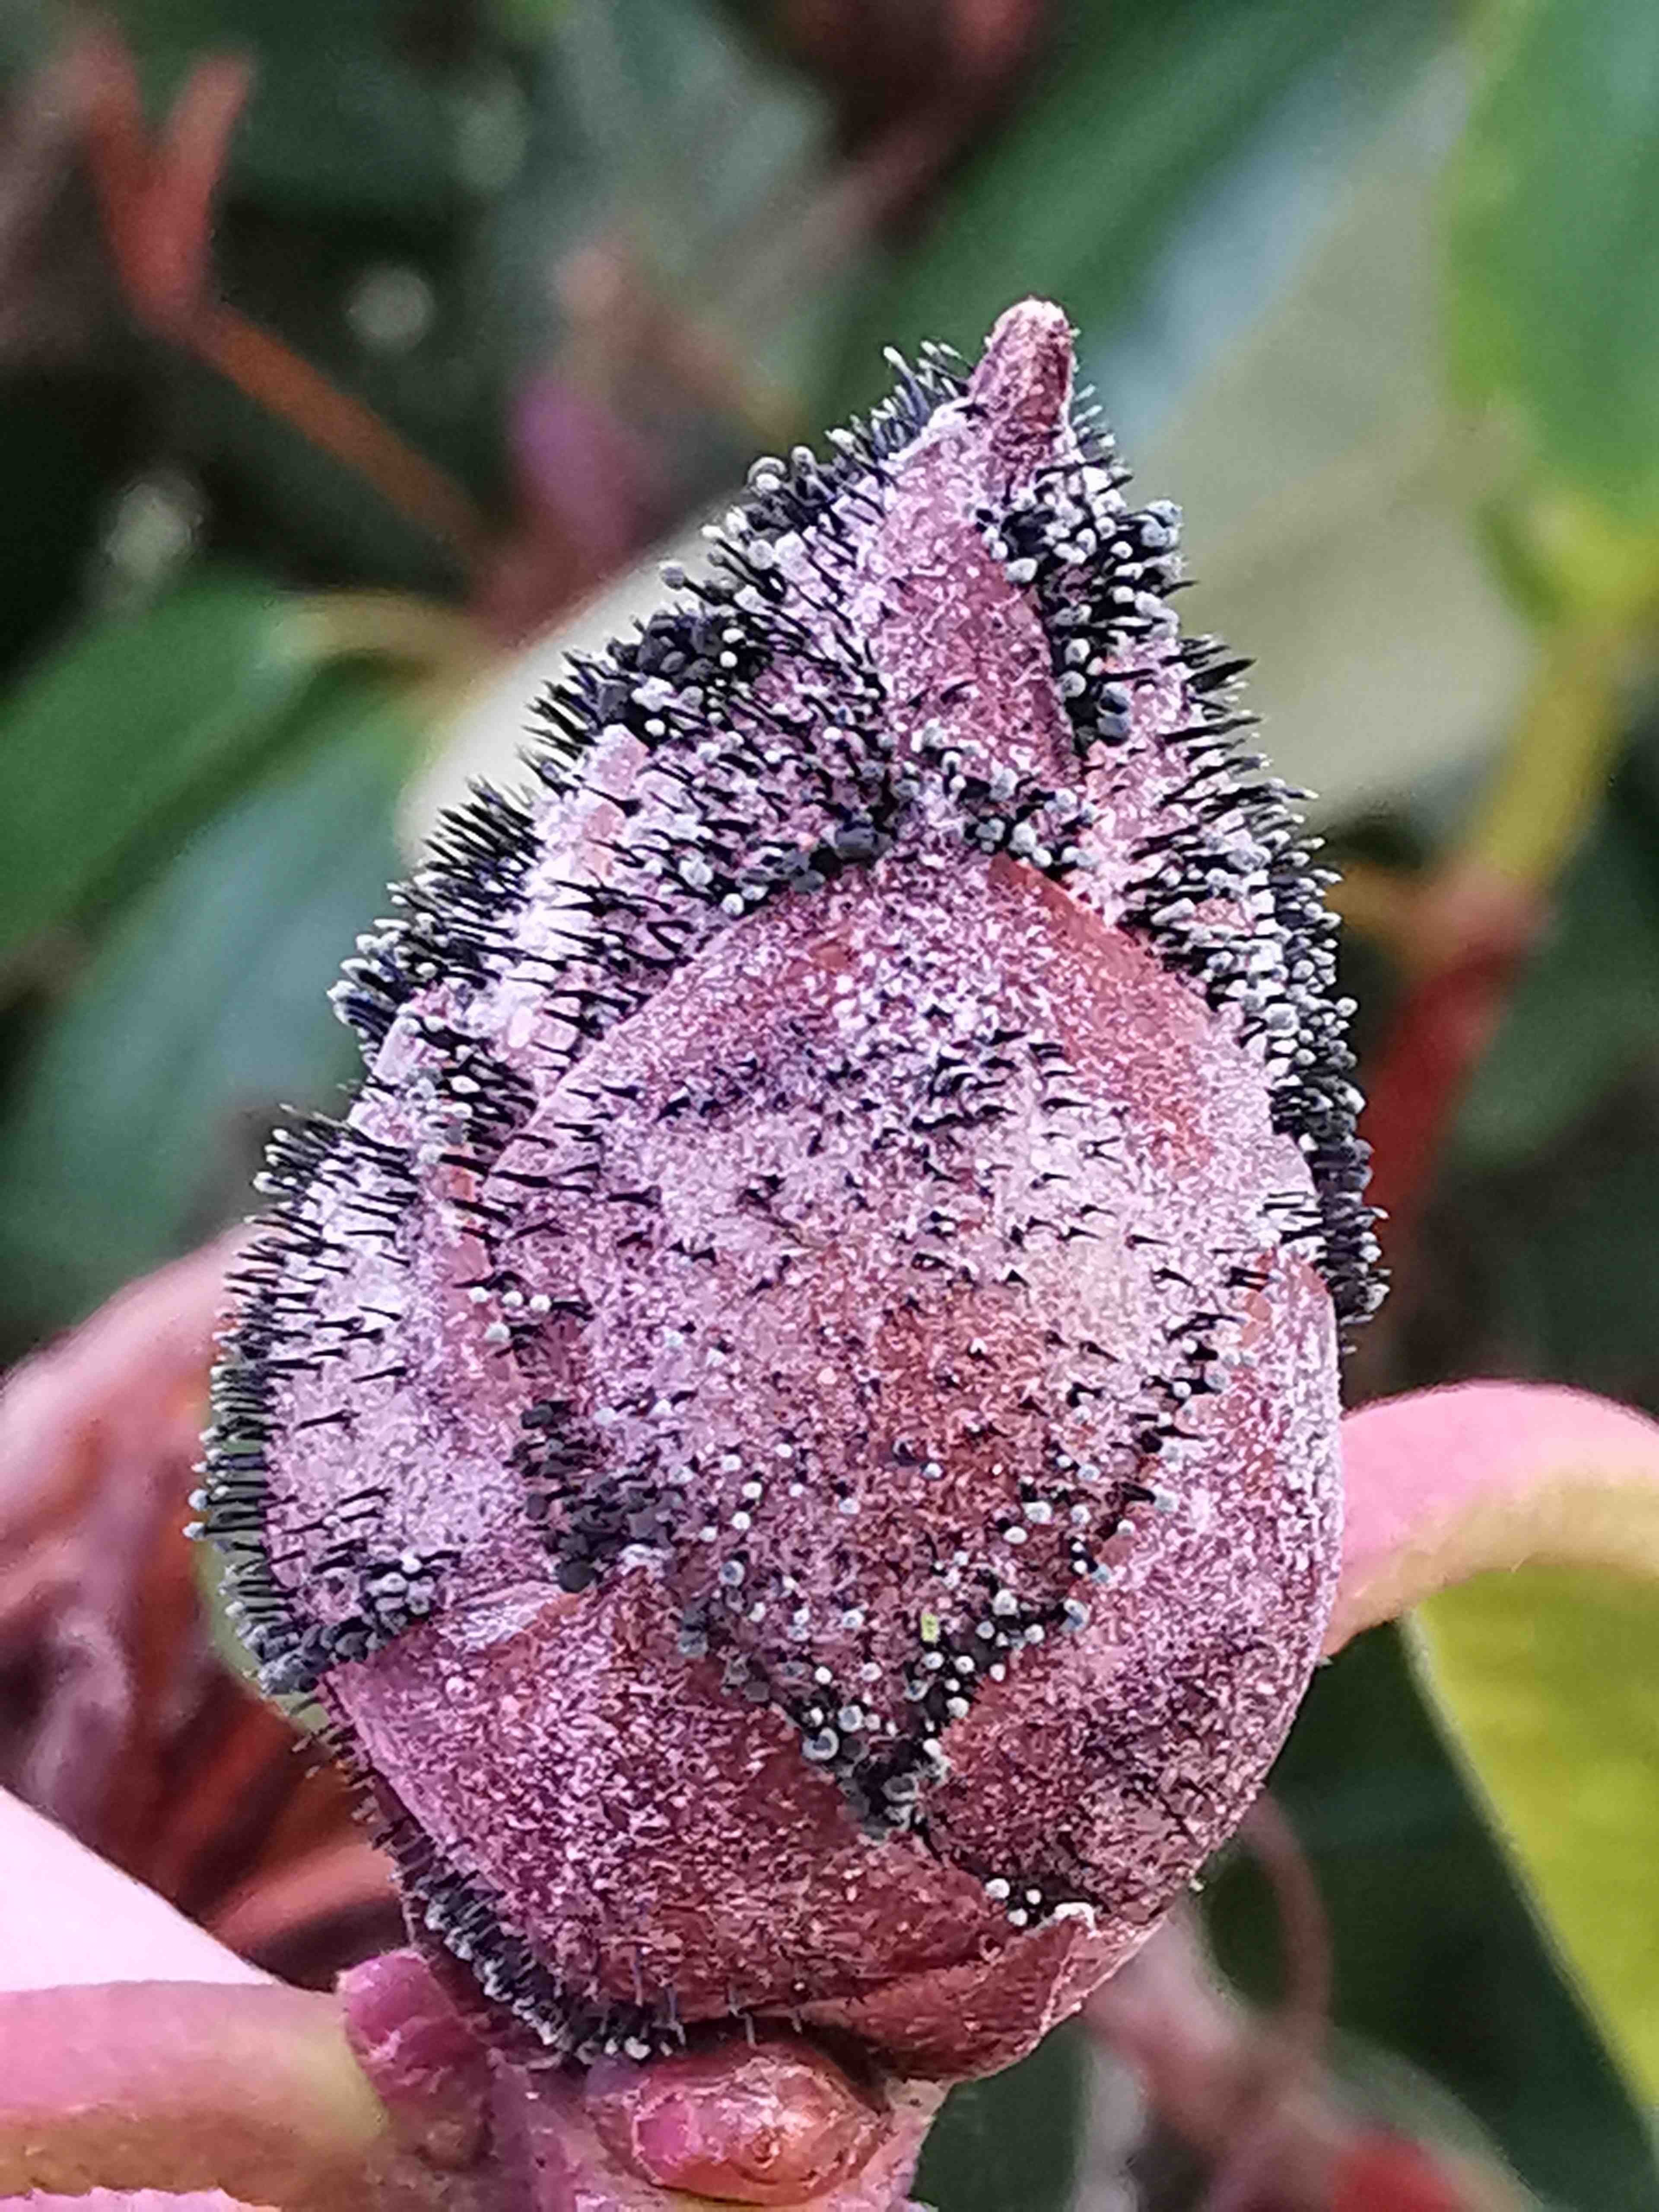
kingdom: Fungi
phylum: Ascomycota
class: Dothideomycetes
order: Pleosporales
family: Melanommataceae
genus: Seifertia
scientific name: Seifertia azaleae
